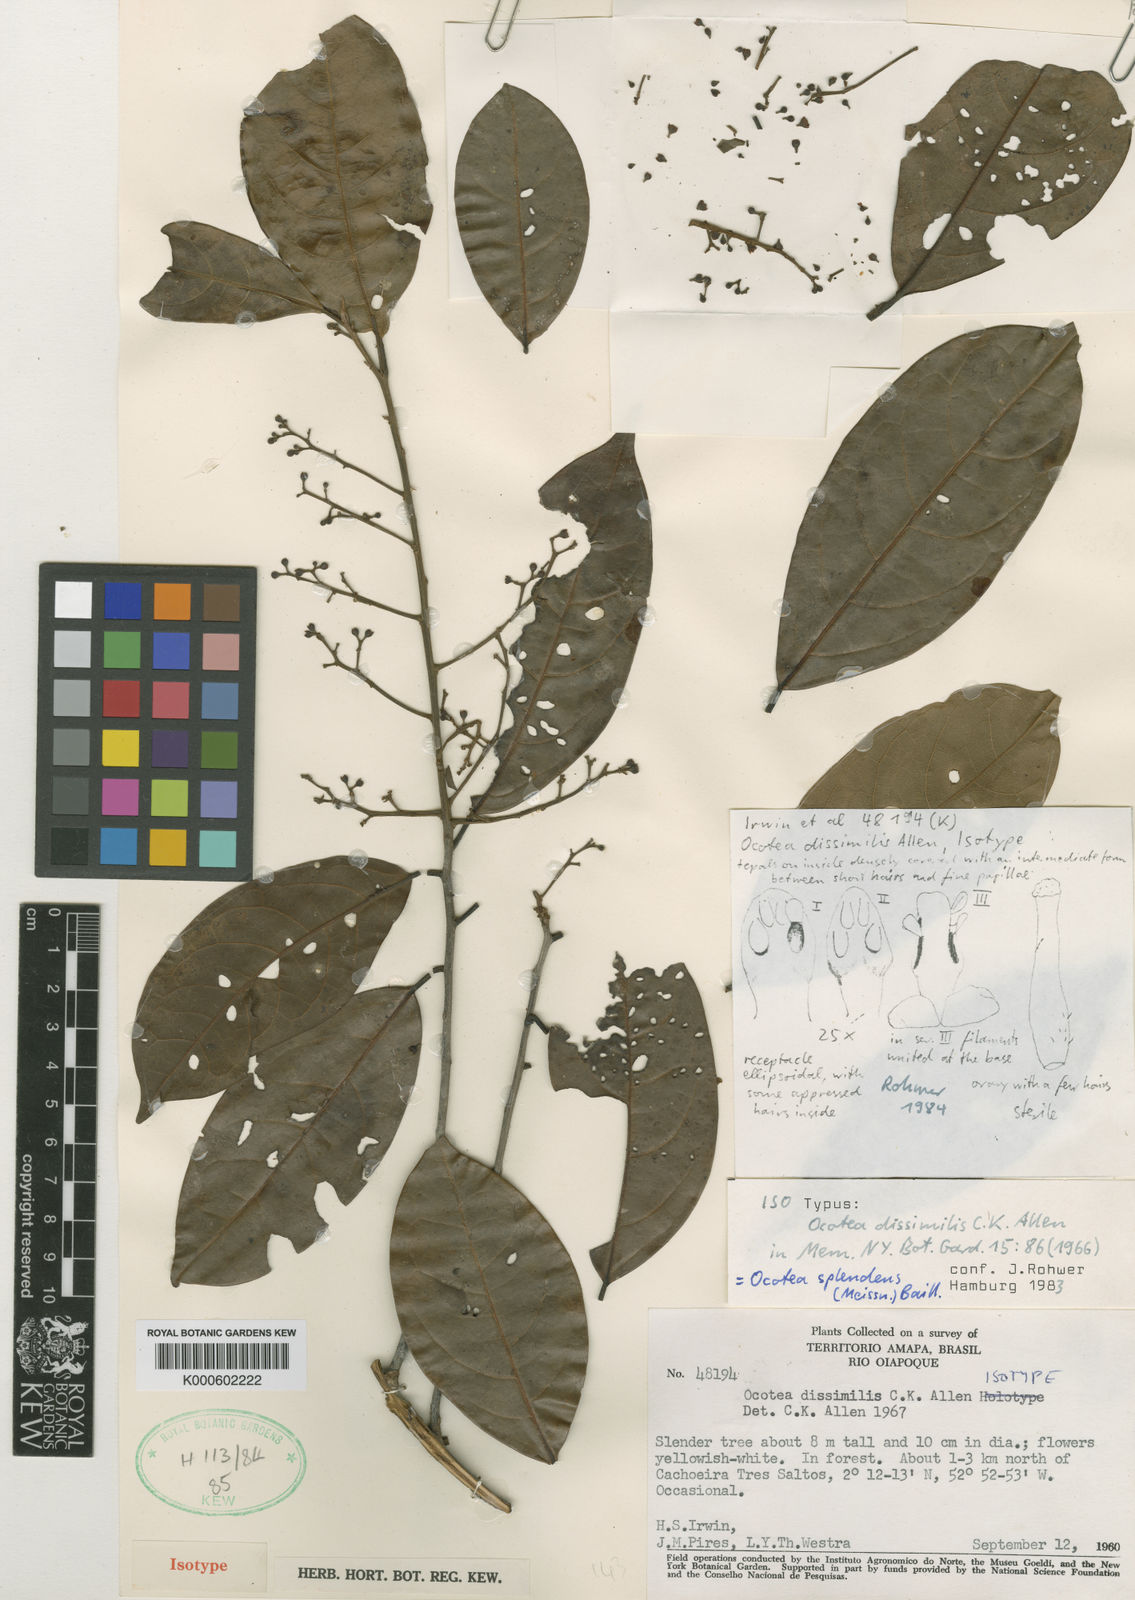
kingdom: Plantae
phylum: Tracheophyta
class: Magnoliopsida
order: Laurales
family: Lauraceae
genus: Ocotea
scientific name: Ocotea splendens
